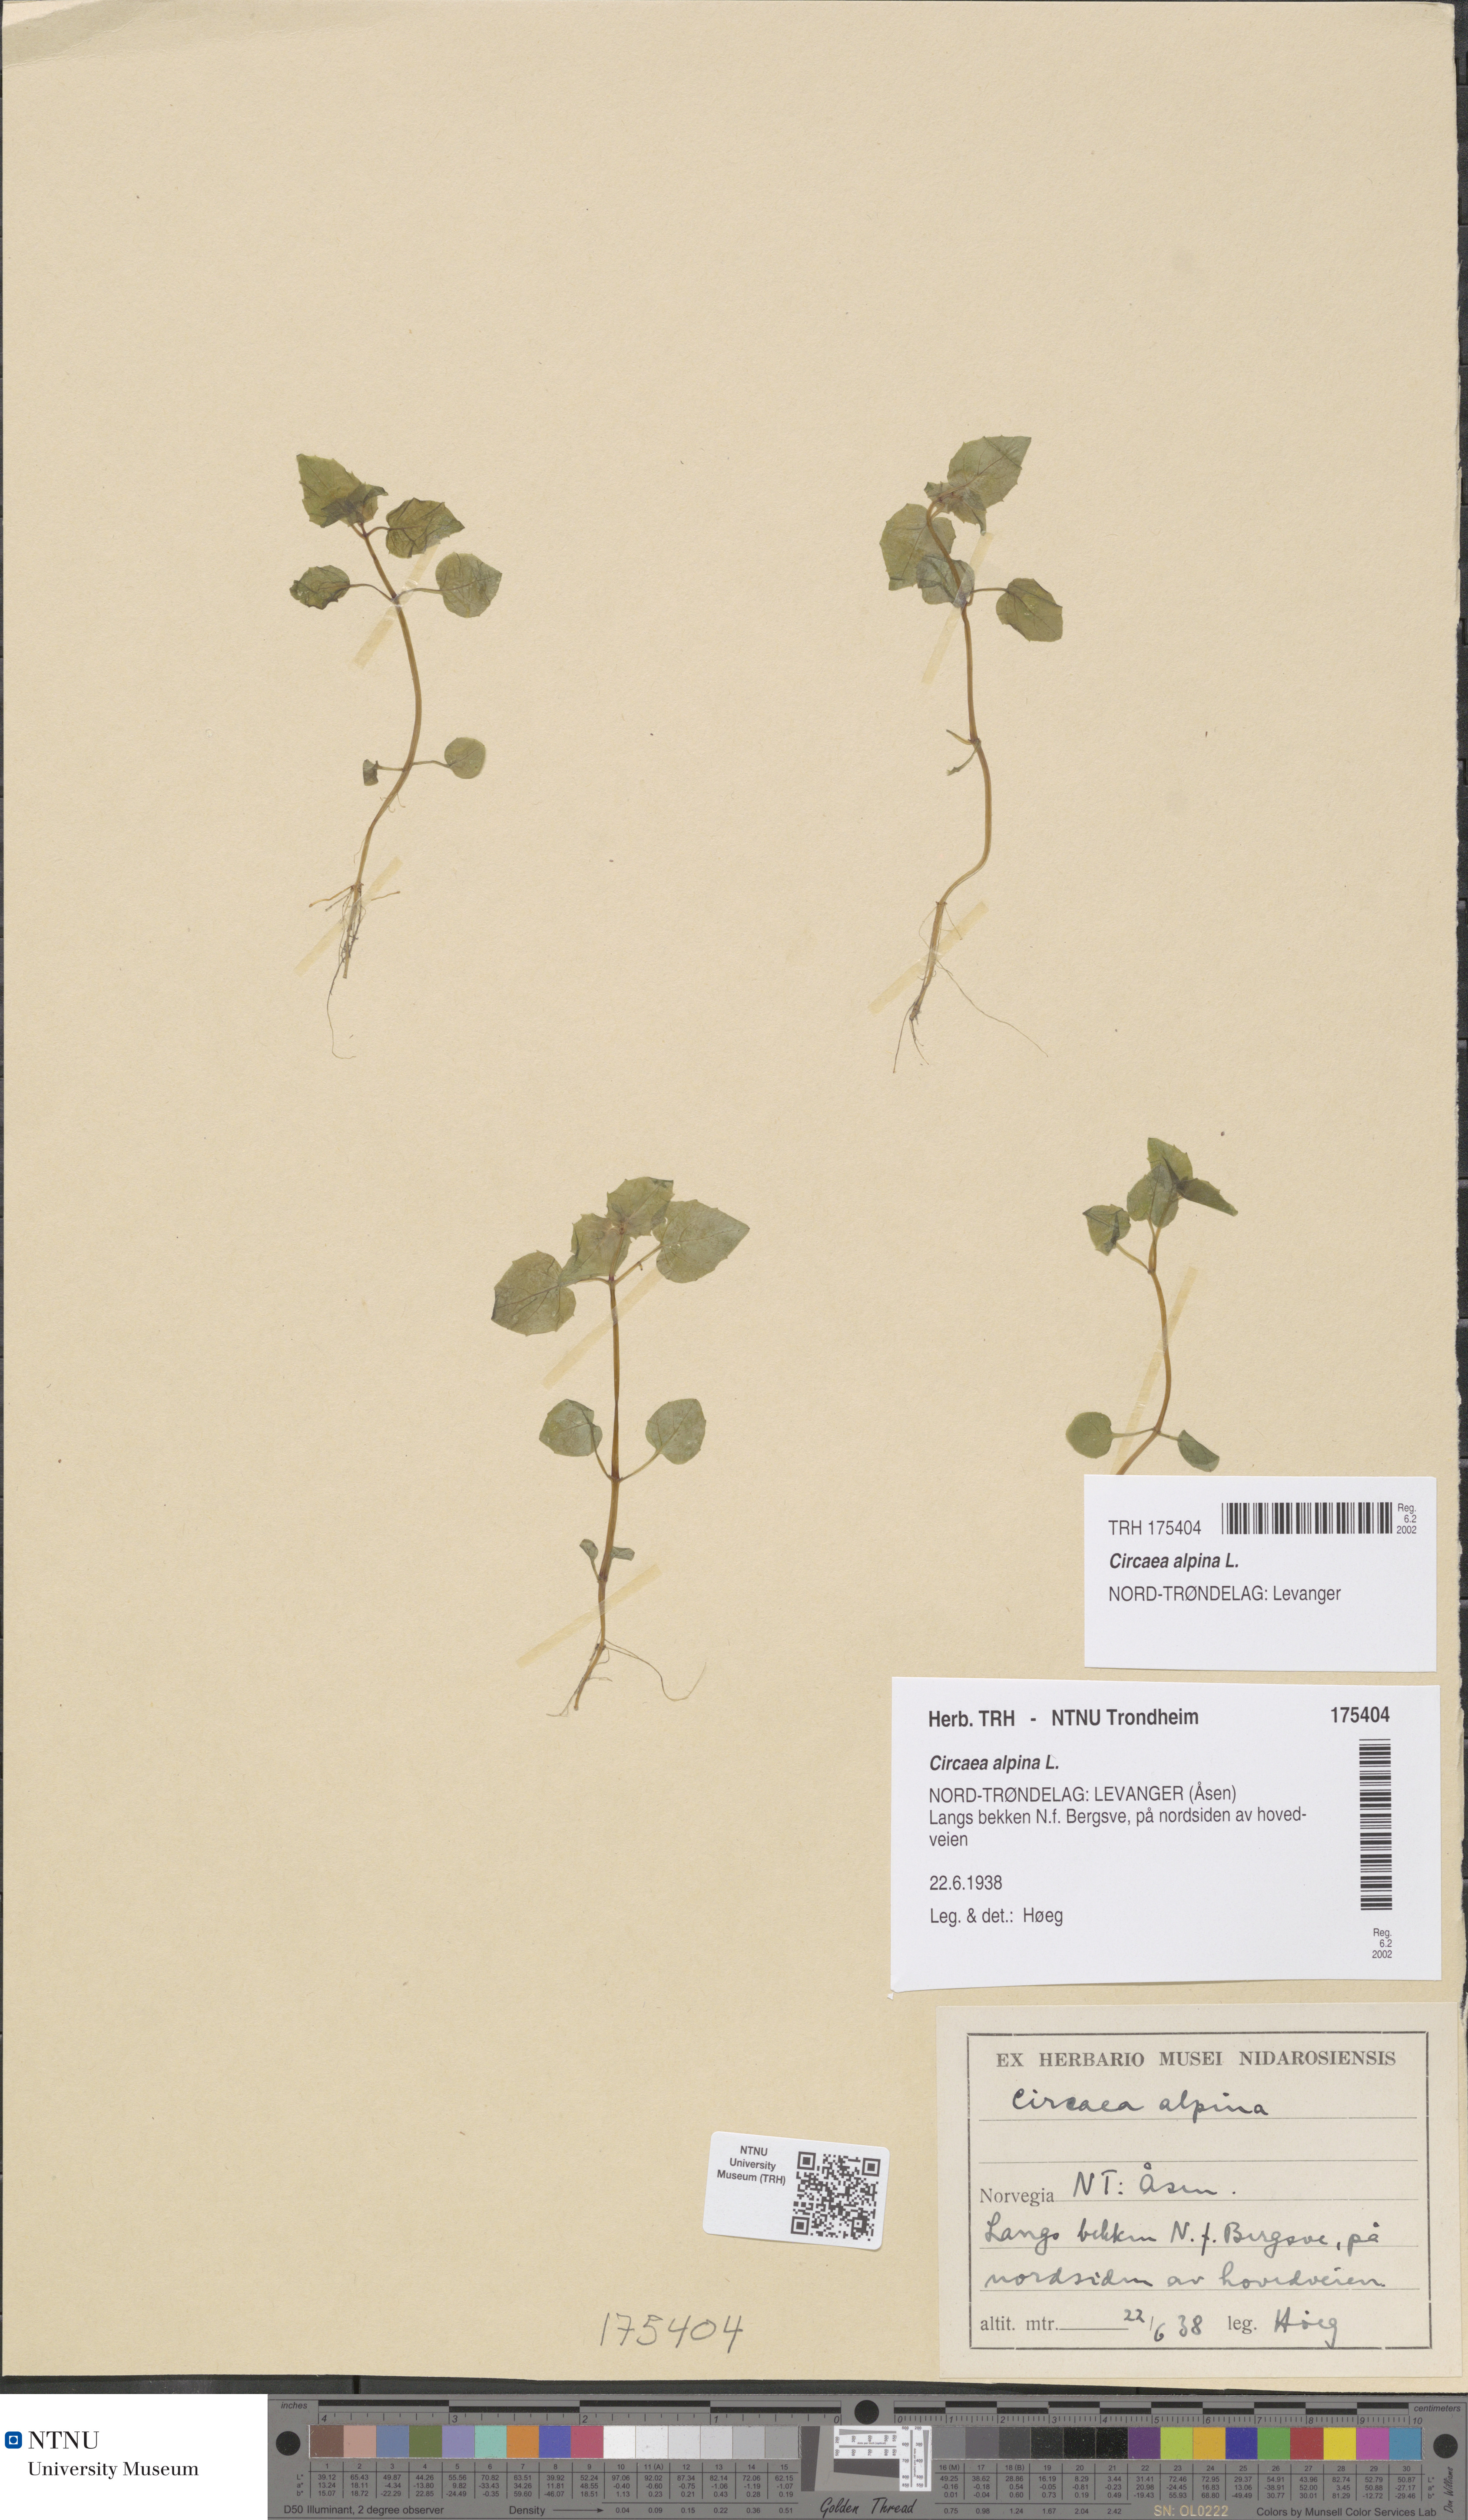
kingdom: Plantae
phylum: Tracheophyta
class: Magnoliopsida
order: Myrtales
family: Onagraceae
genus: Circaea
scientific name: Circaea alpina
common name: Alpine enchanter's-nightshade
